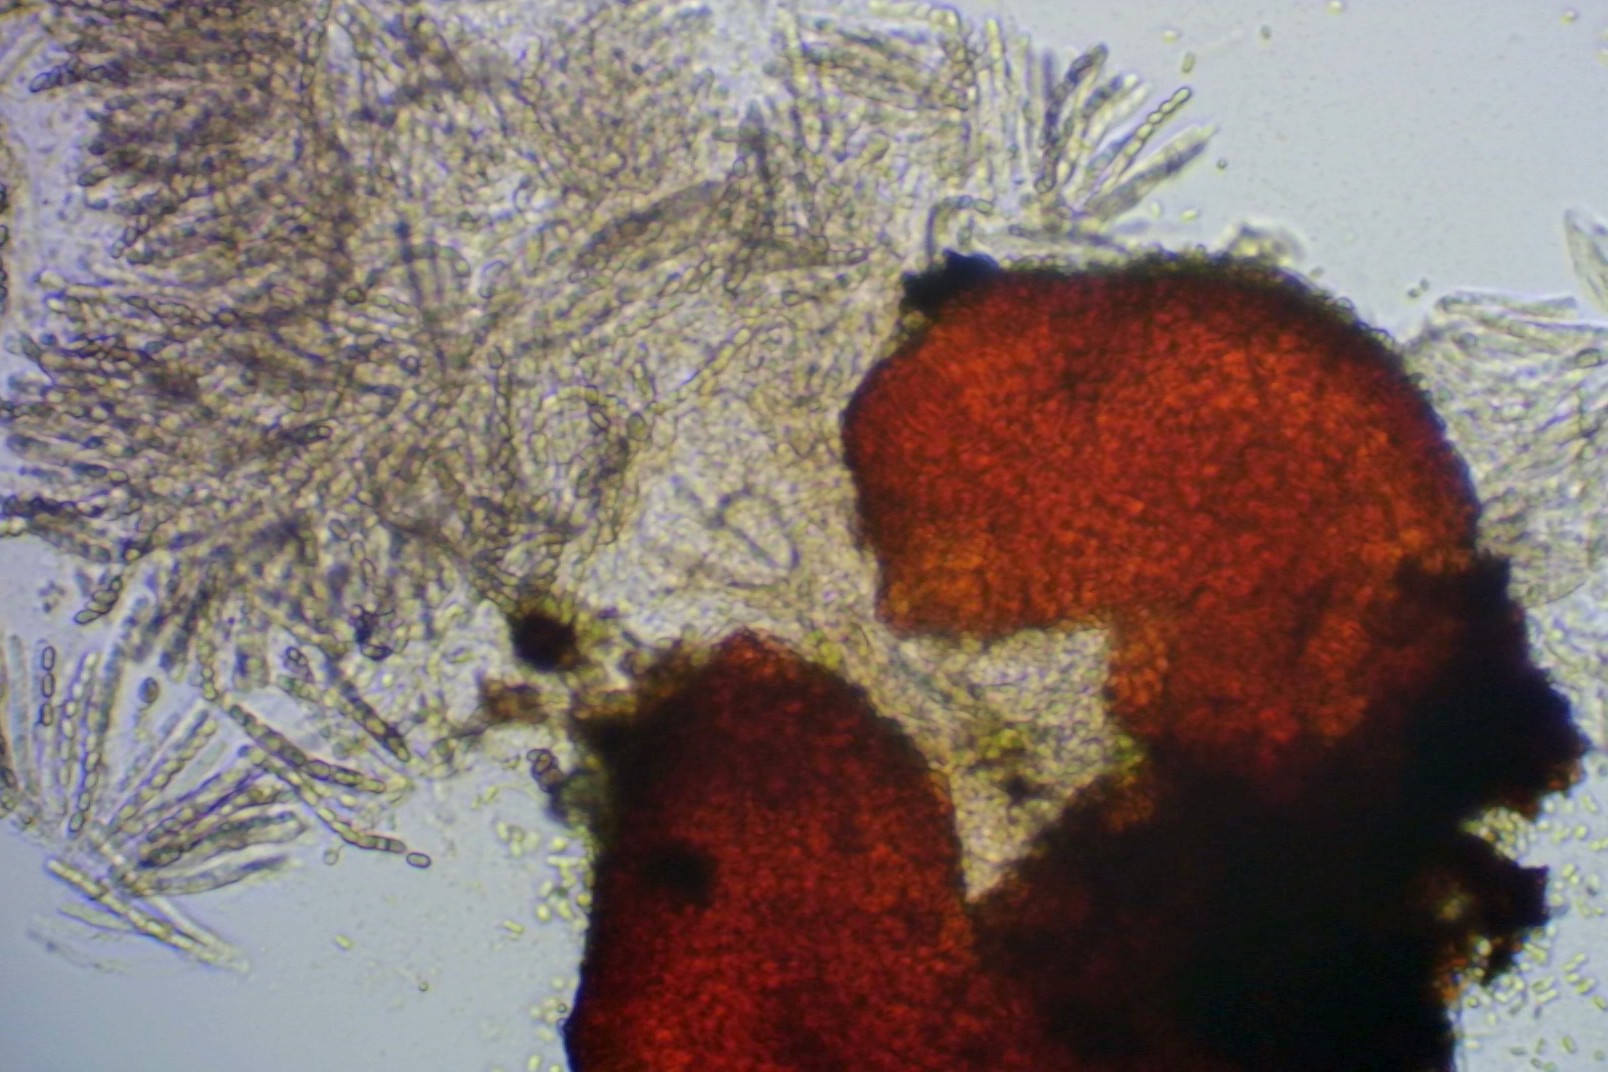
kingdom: Fungi
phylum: Ascomycota
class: Sordariomycetes
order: Hypocreales
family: Nectriaceae
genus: Cosmospora
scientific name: Cosmospora arxii
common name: kuljordbær-cinnobersvamp
